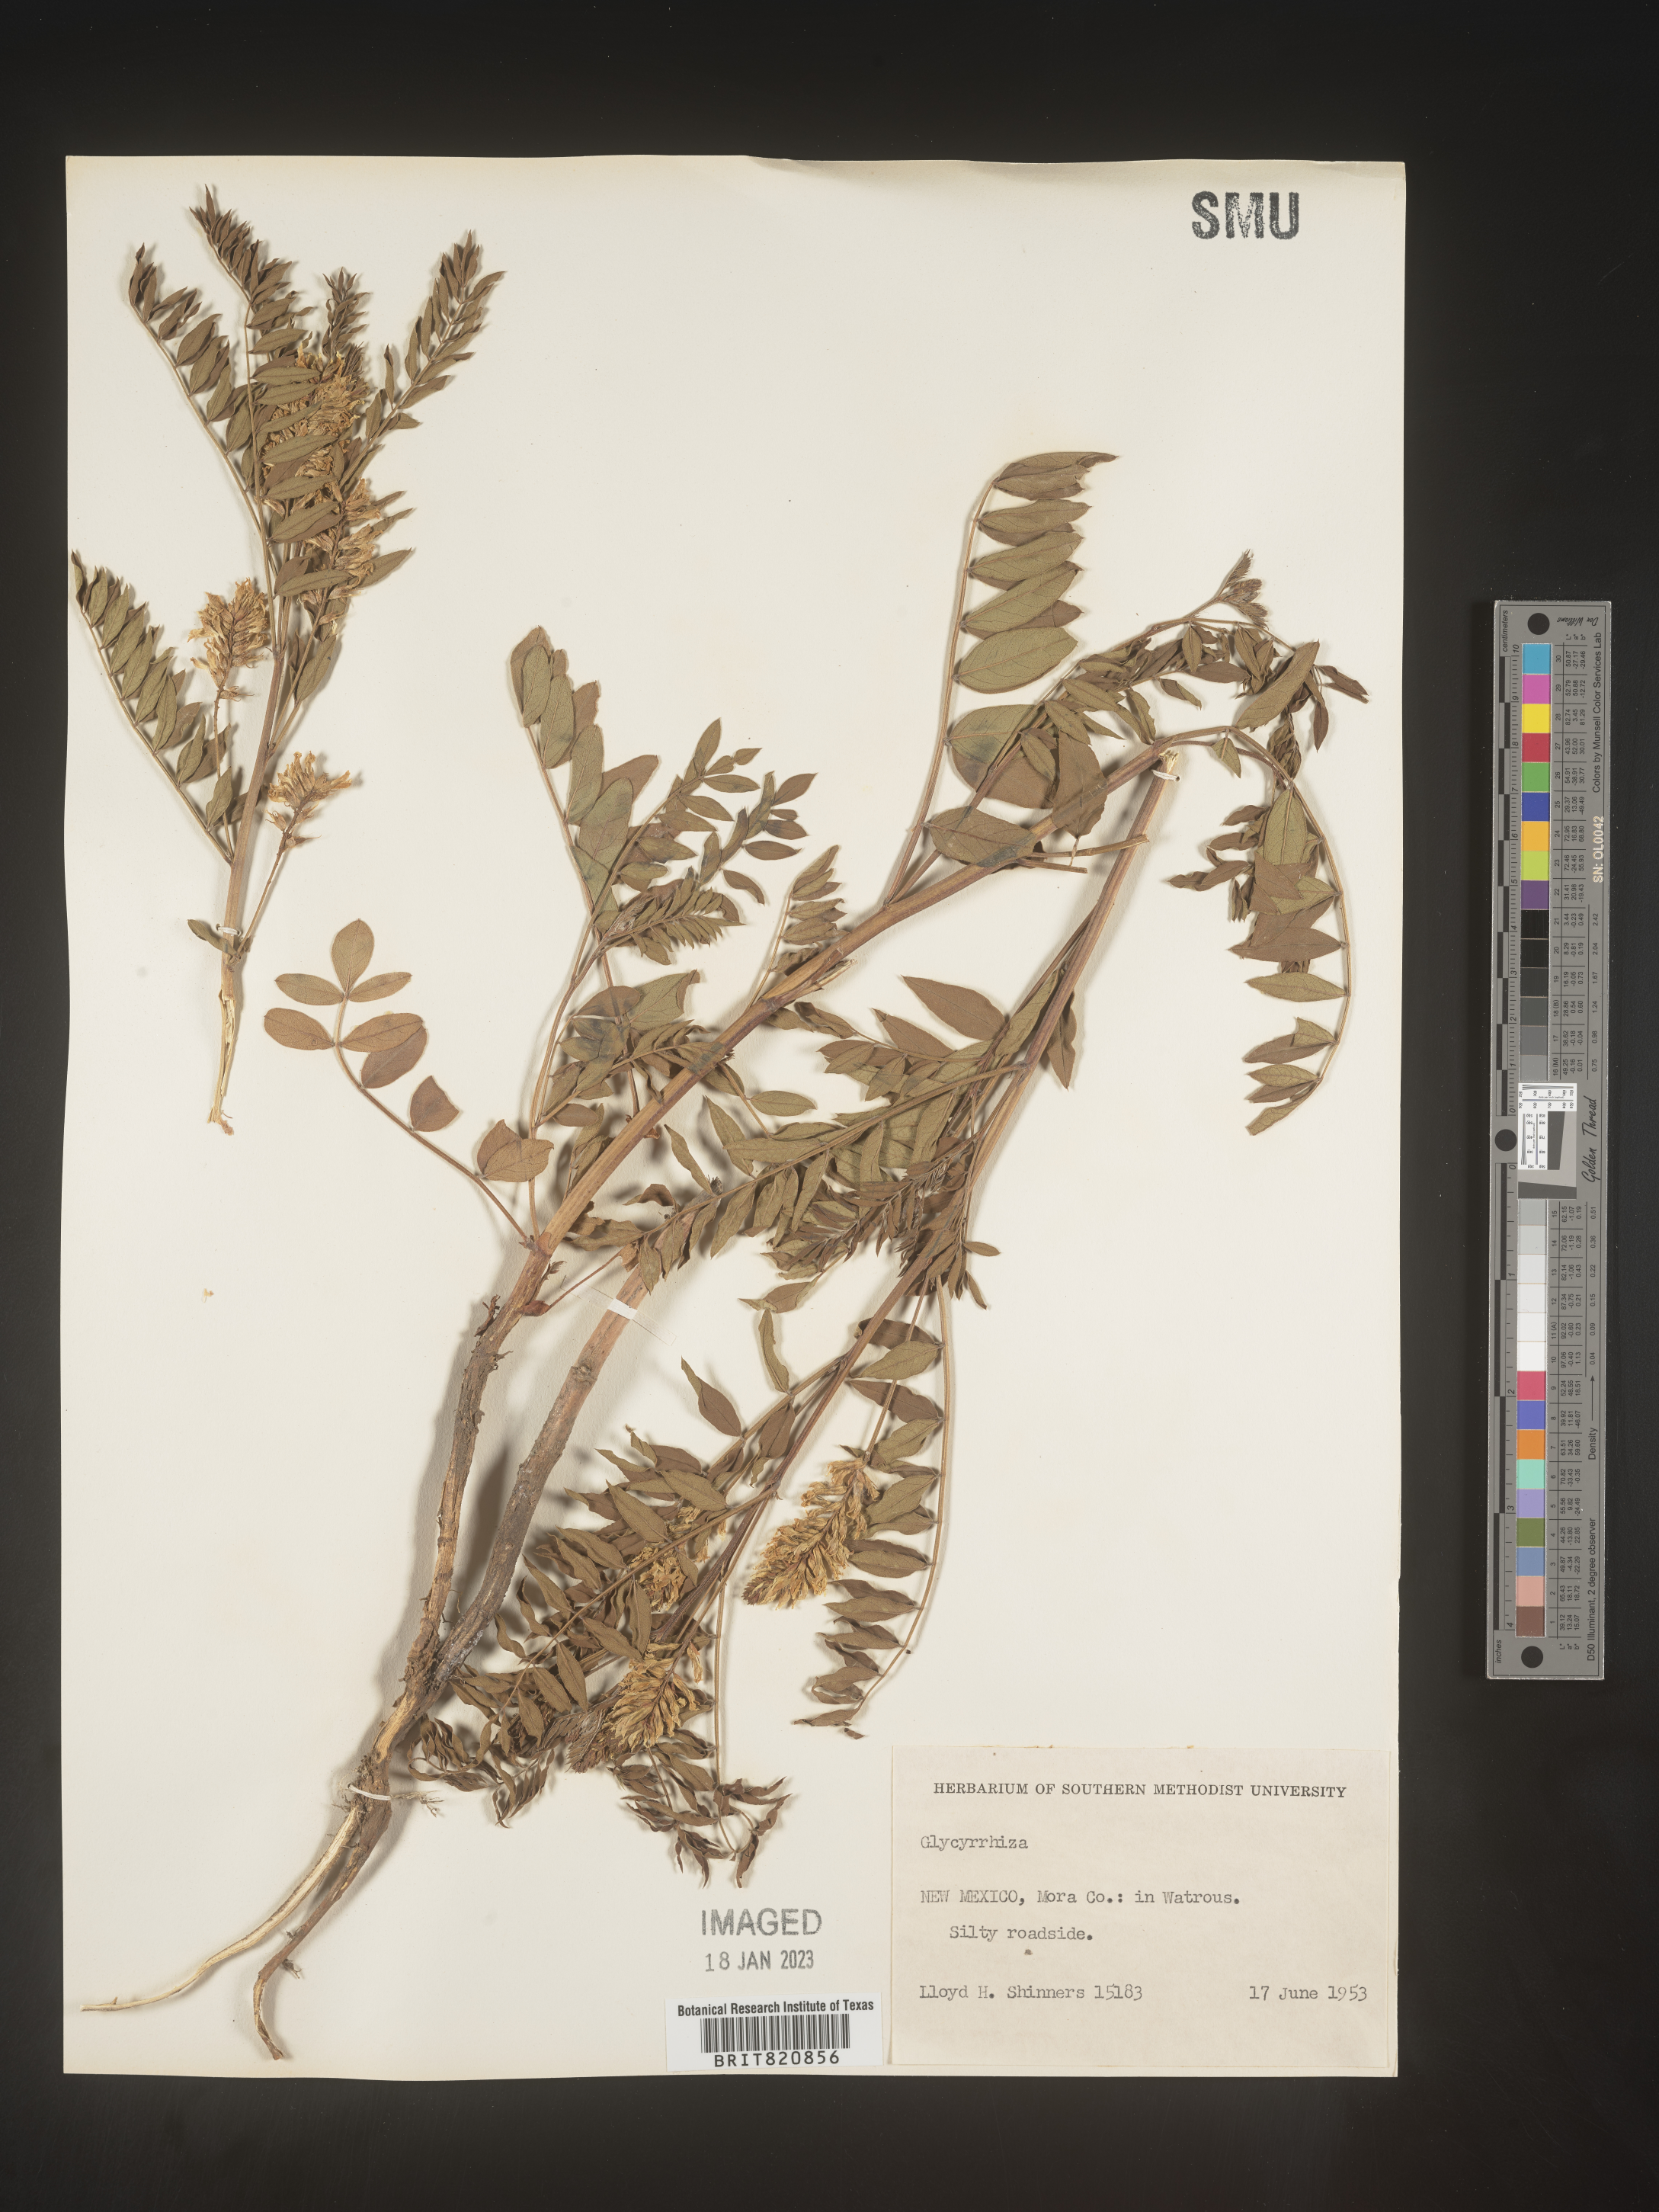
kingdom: Plantae
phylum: Tracheophyta
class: Magnoliopsida
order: Fabales
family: Fabaceae
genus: Glycyrrhiza
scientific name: Glycyrrhiza lepidota
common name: American liquorice
